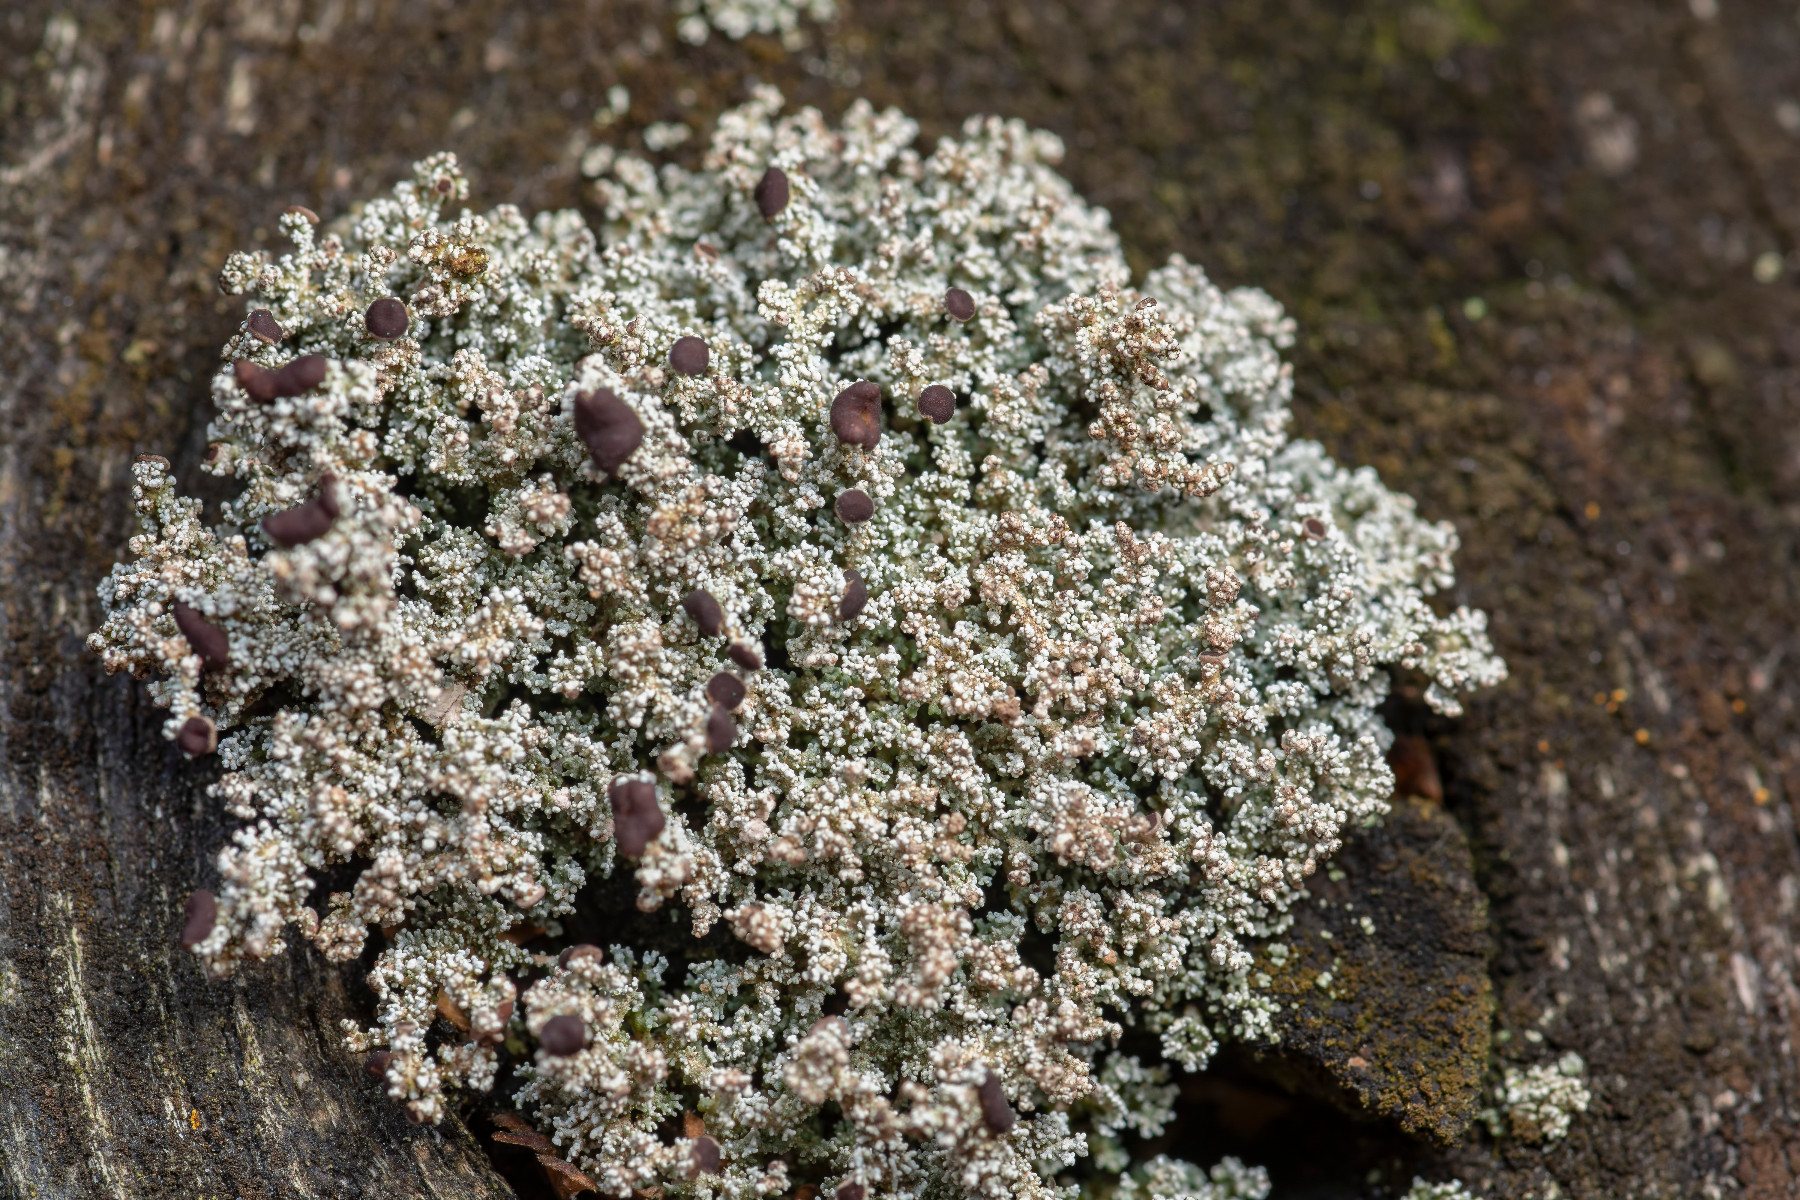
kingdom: Fungi
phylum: Ascomycota
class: Lecanoromycetes
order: Lecanorales
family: Stereocaulaceae
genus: Stereocaulon
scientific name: Stereocaulon dactylophyllum
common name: finger-korallav
